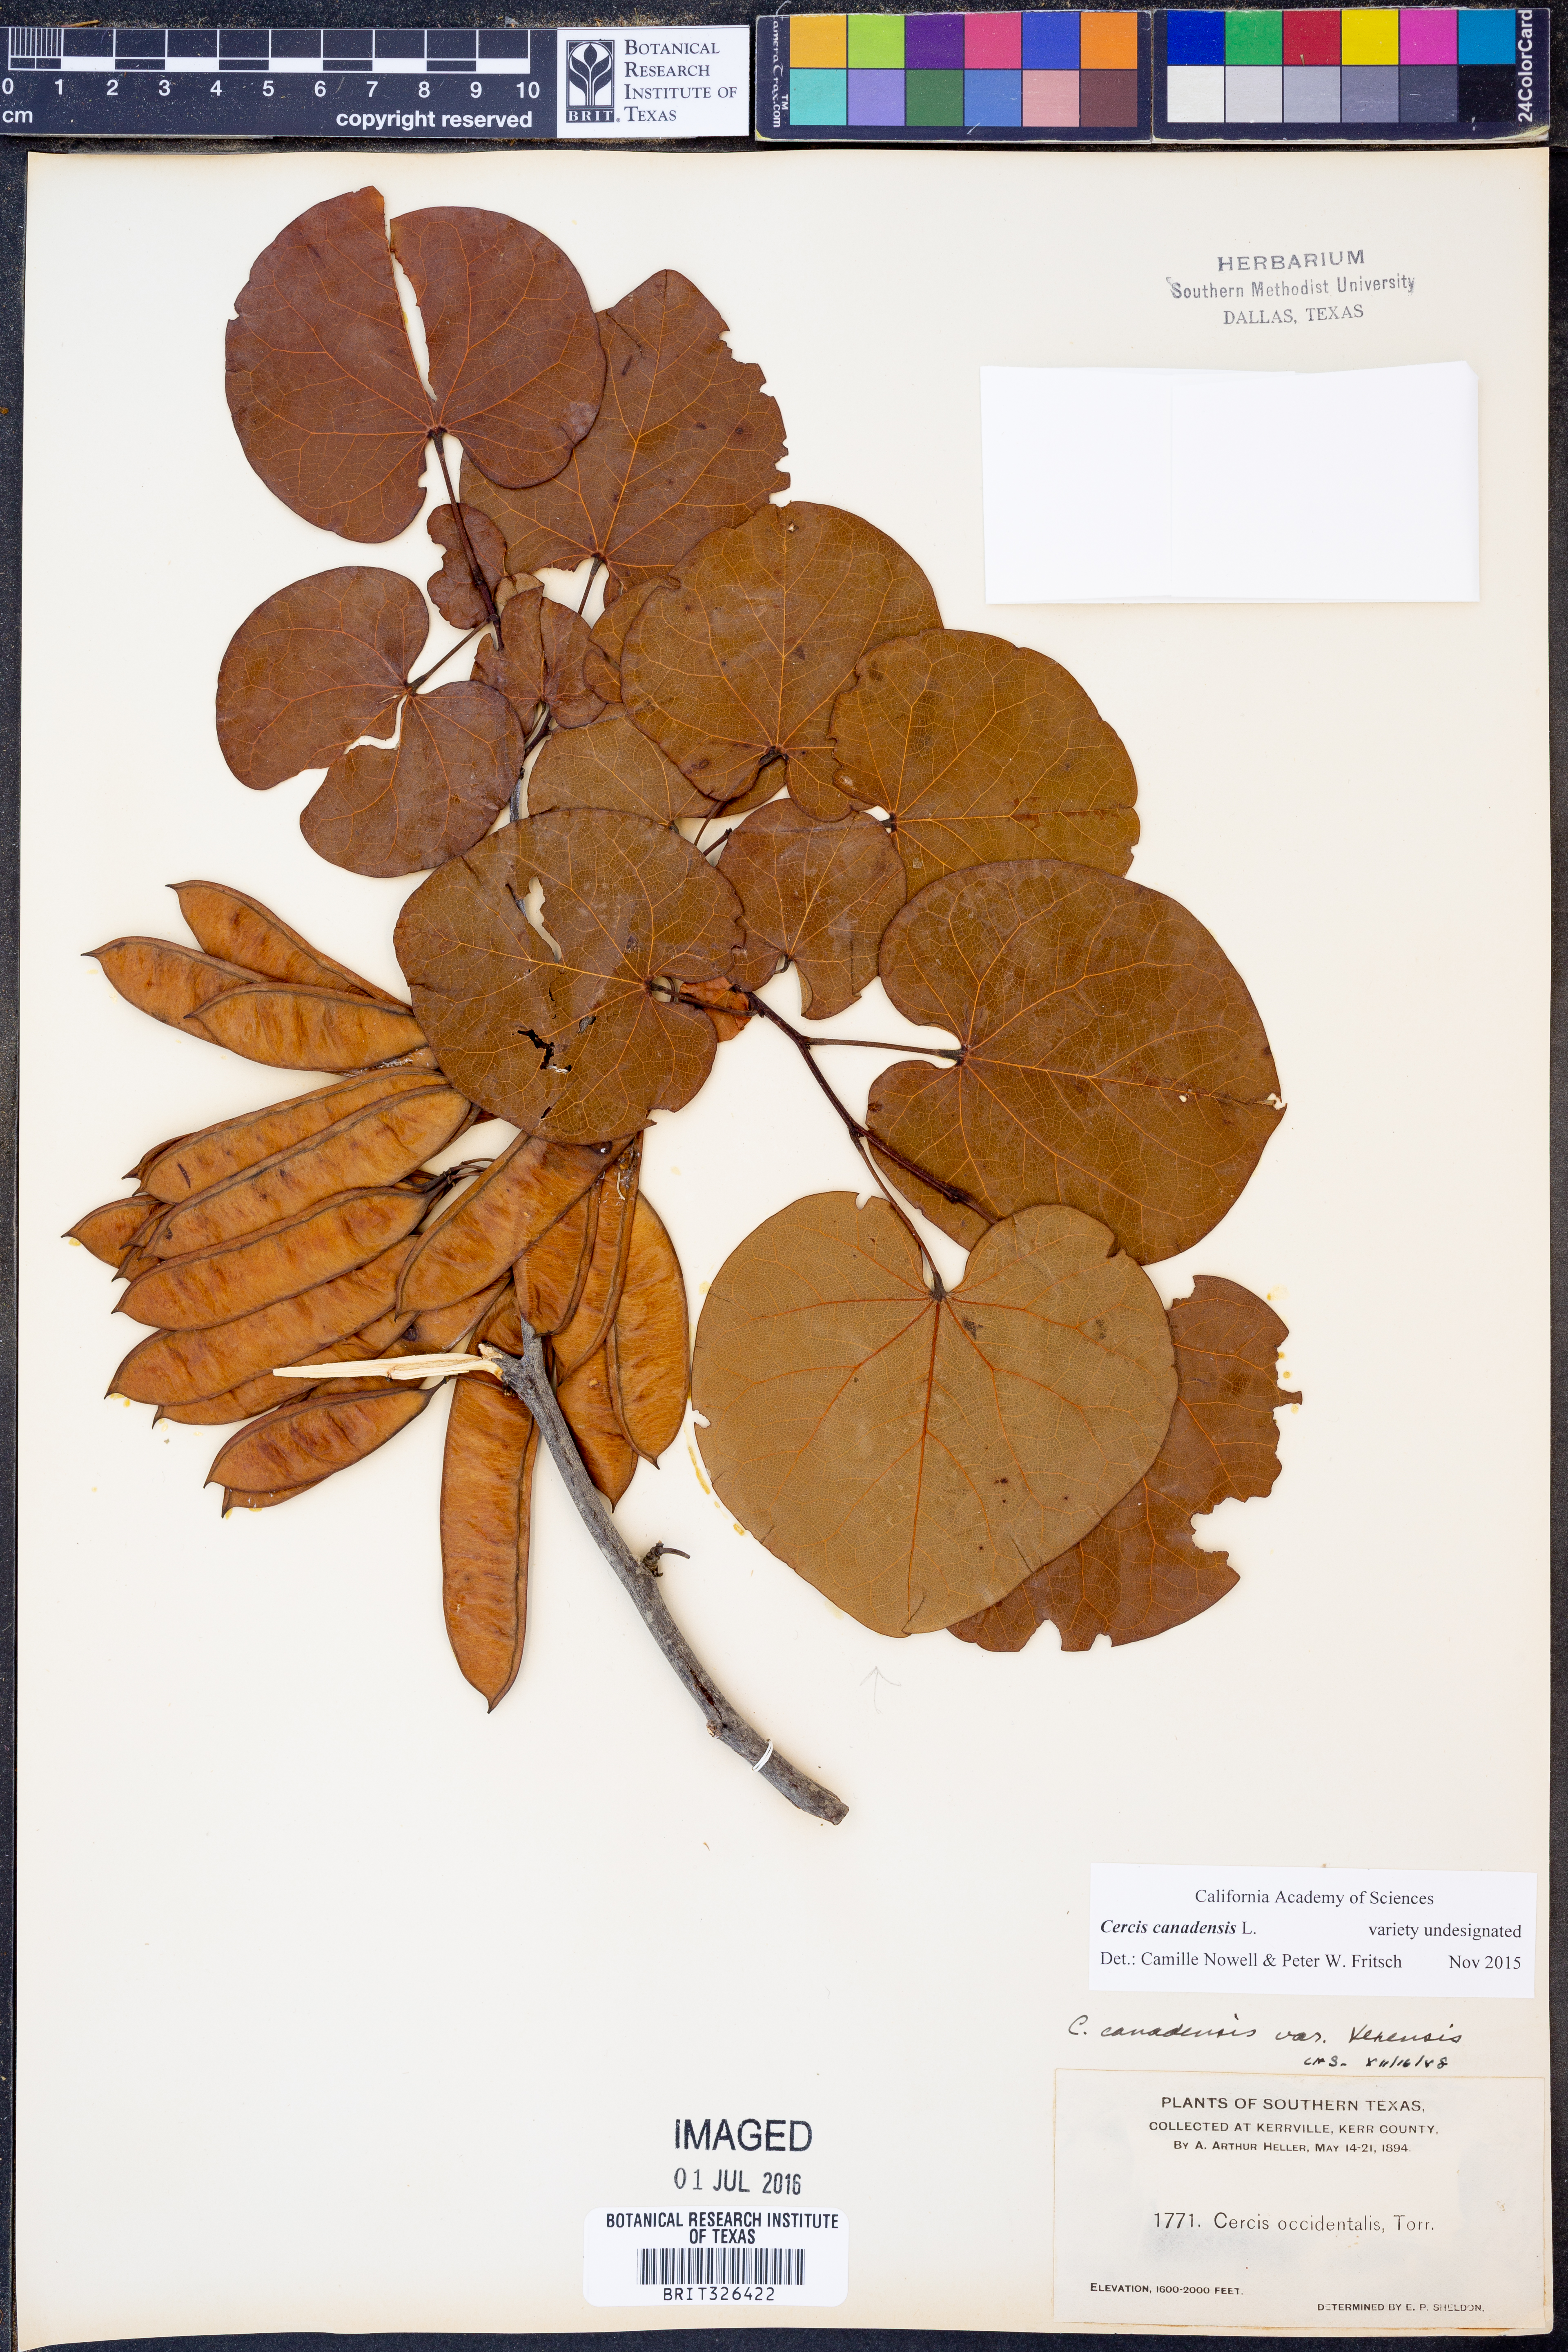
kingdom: Plantae
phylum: Tracheophyta
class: Magnoliopsida
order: Fabales
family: Fabaceae
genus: Cercis
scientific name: Cercis canadensis
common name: Eastern redbud
